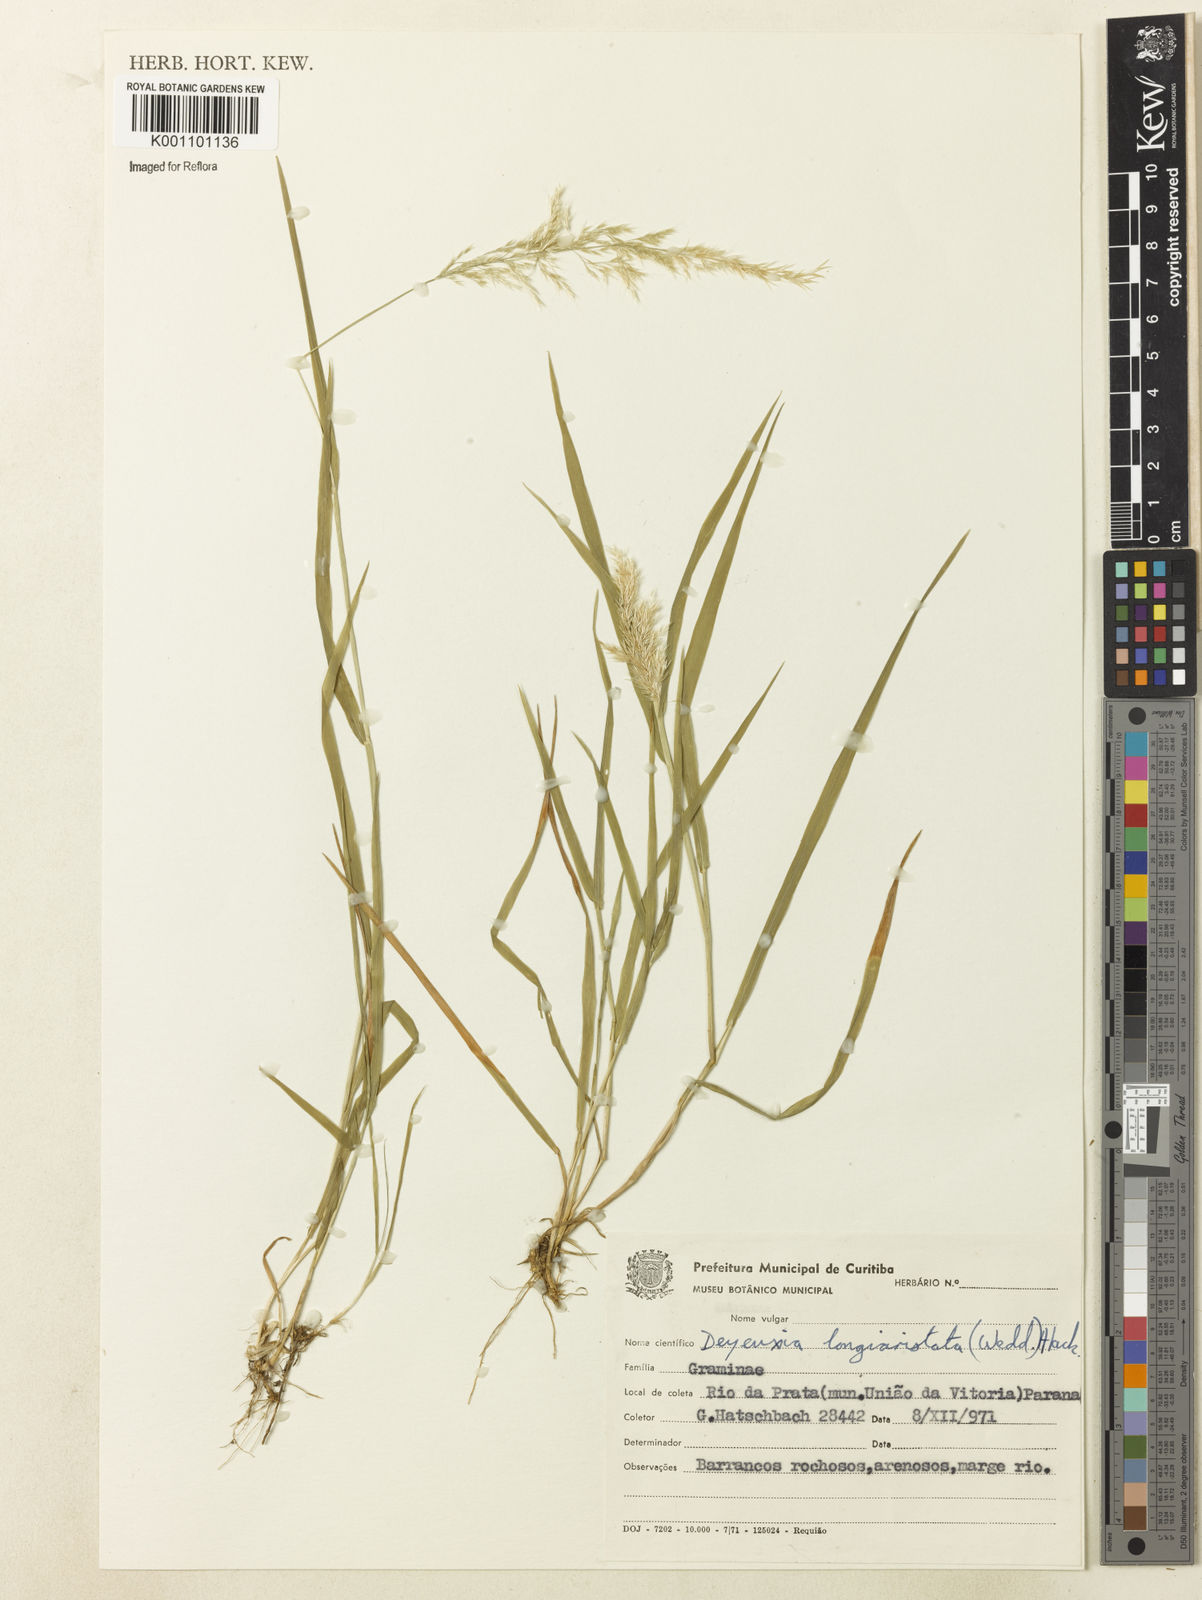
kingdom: Plantae
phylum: Tracheophyta
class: Liliopsida
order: Poales
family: Poaceae
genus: Cinnagrostis
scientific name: Cinnagrostis rupestris
